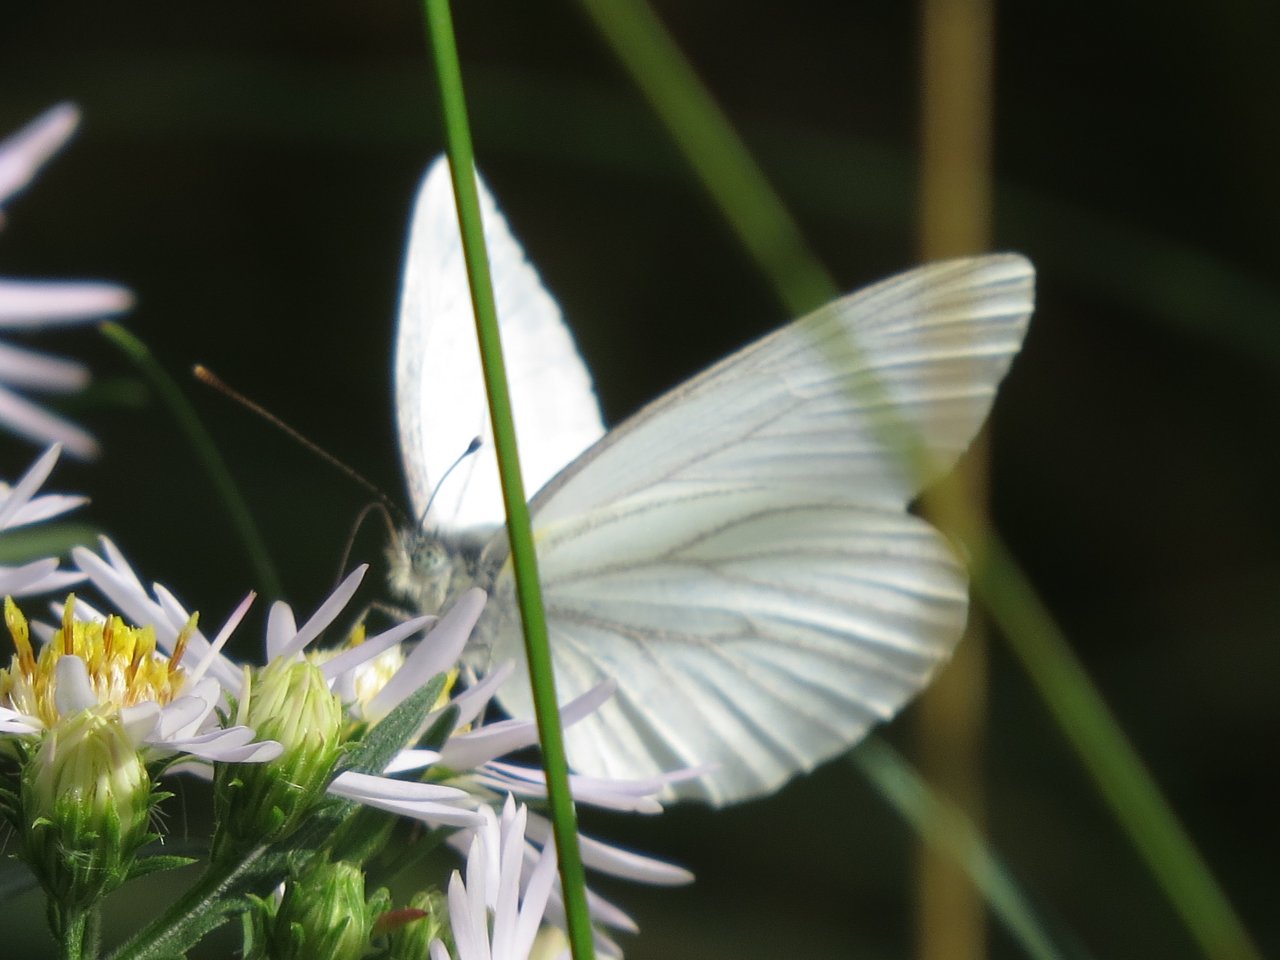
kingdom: Animalia
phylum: Arthropoda
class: Insecta
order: Lepidoptera
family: Pieridae
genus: Pieris
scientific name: Pieris oleracea
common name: Mustard White
